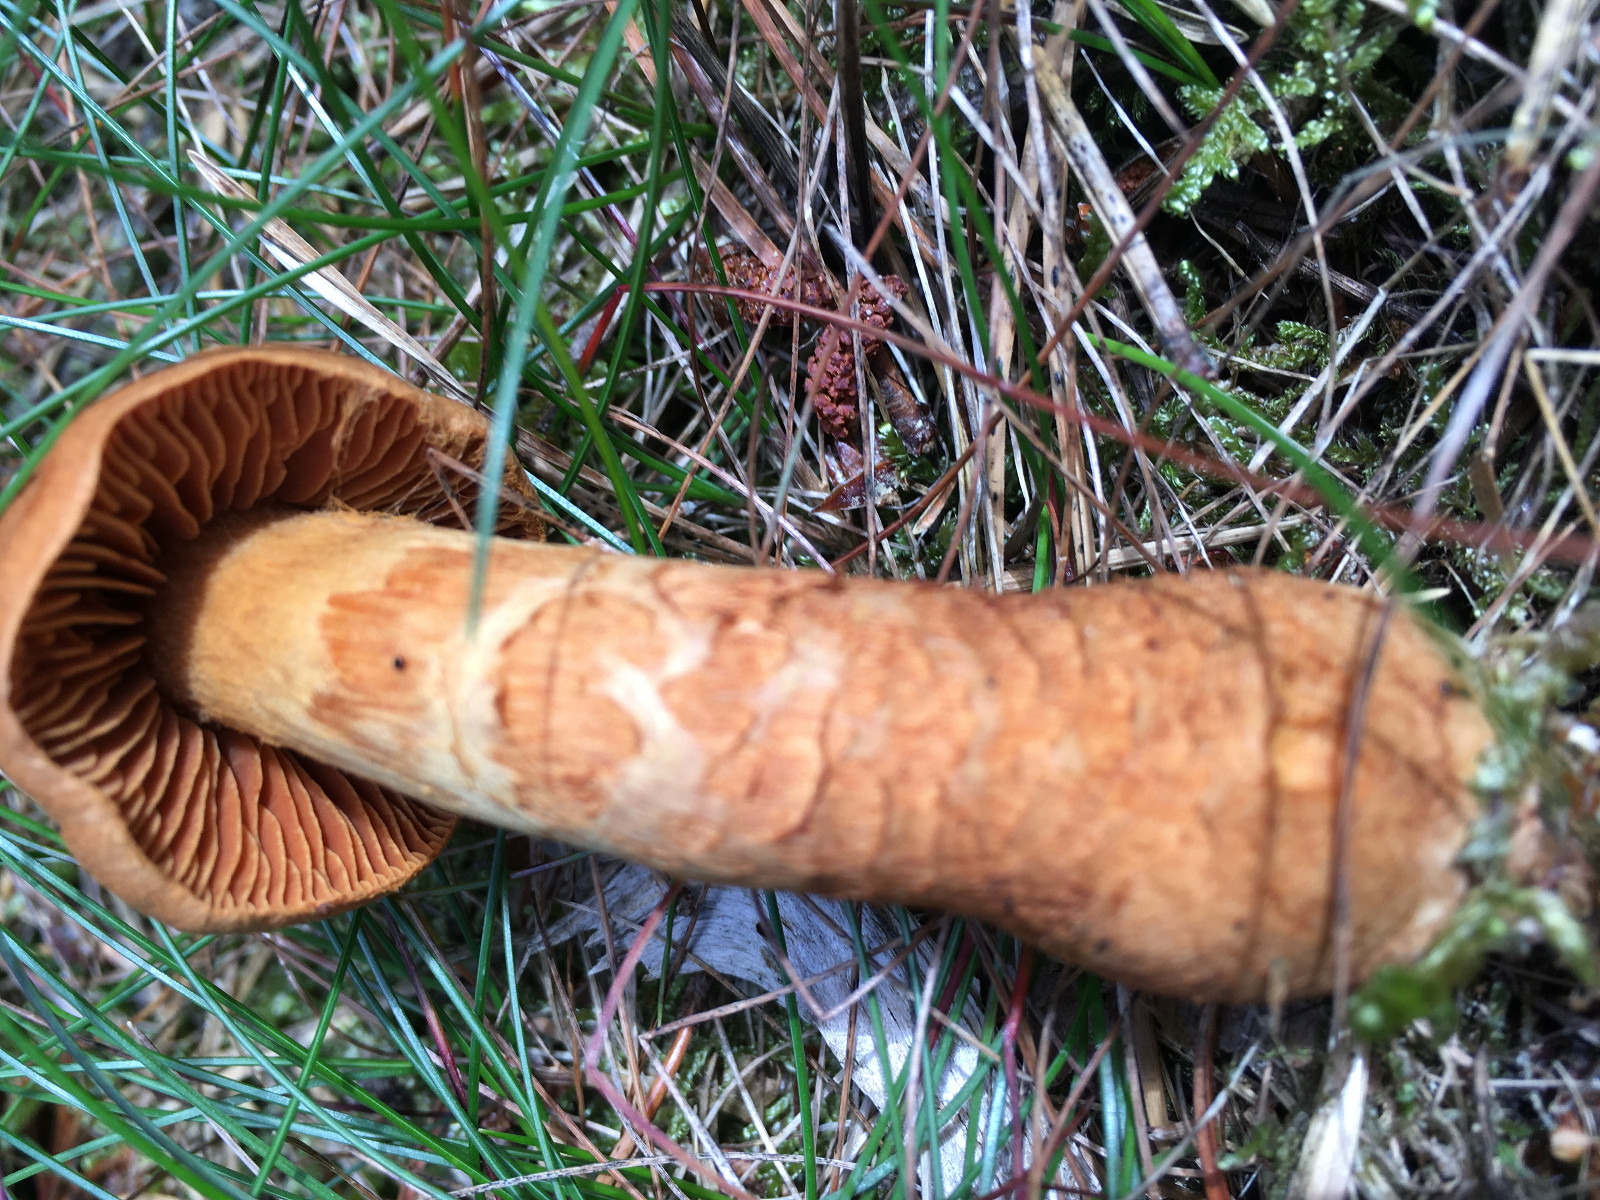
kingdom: Fungi
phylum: Basidiomycota
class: Agaricomycetes
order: Agaricales
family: Cortinariaceae
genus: Cortinarius
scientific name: Cortinarius rubellus
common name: puklet gift-slørhat
